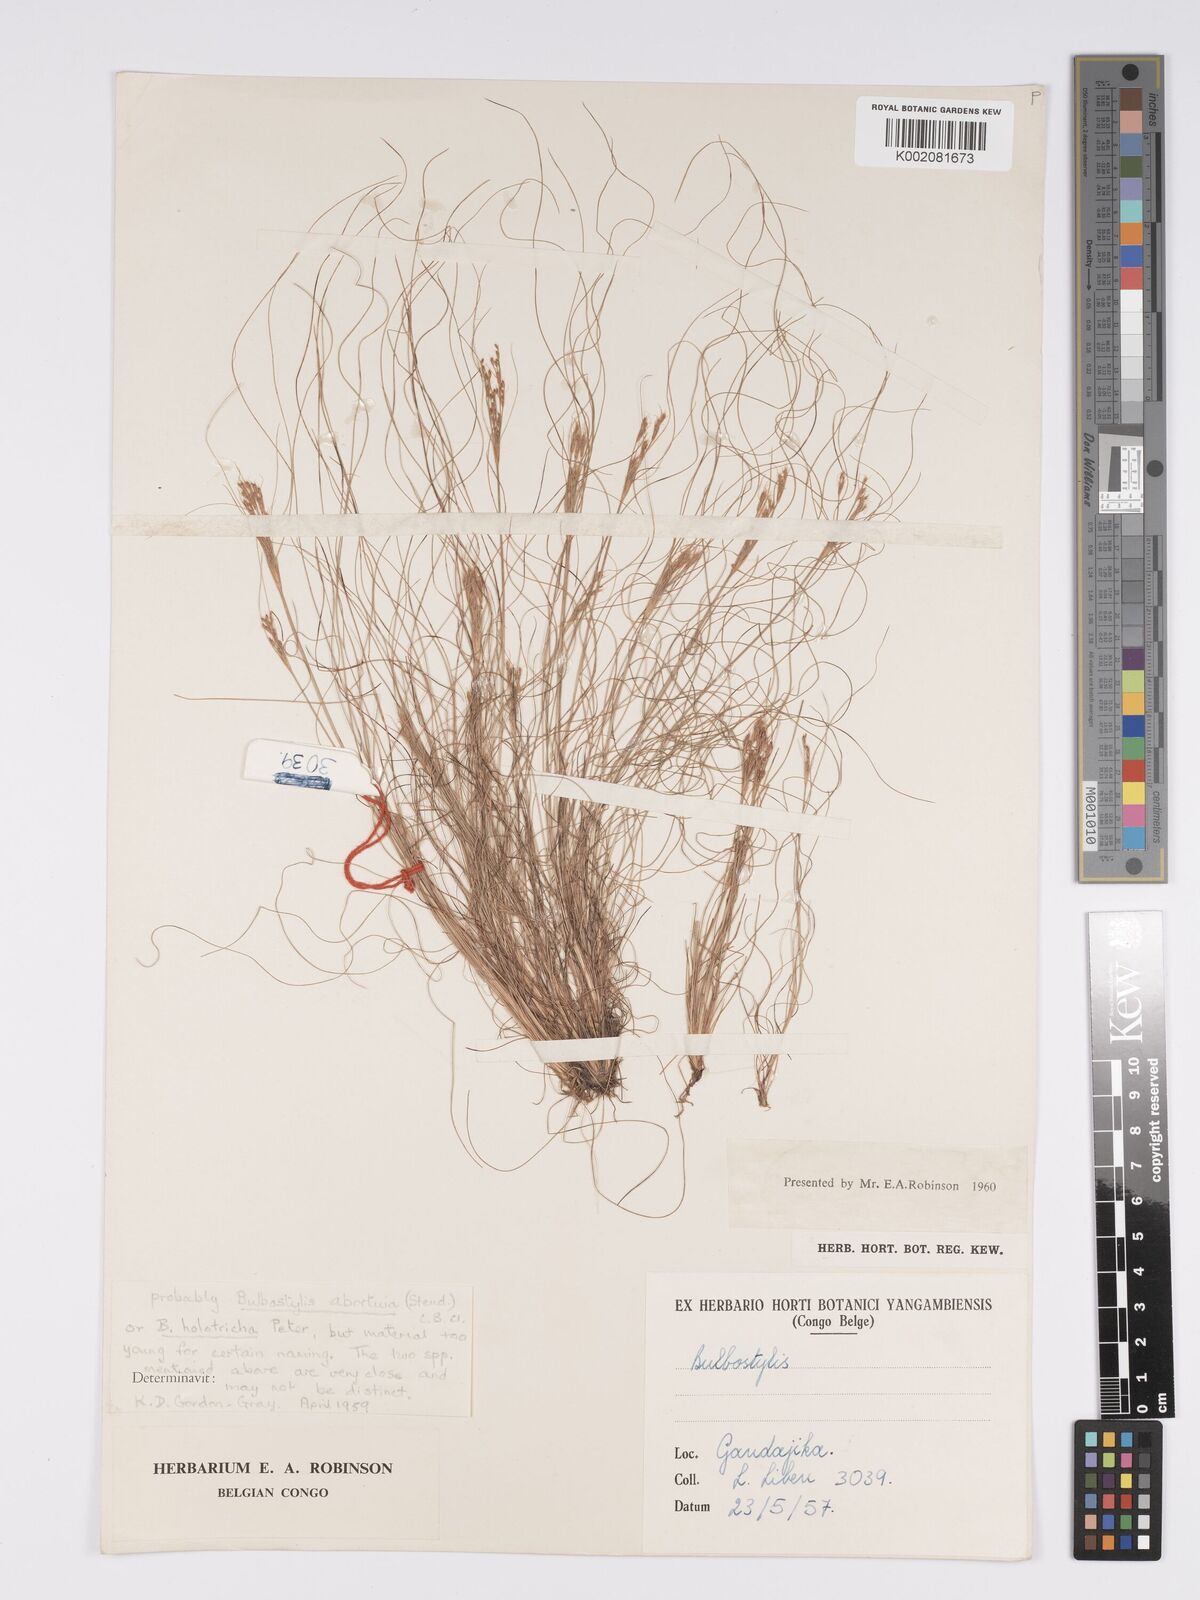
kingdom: Plantae
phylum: Tracheophyta
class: Liliopsida
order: Poales
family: Cyperaceae
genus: Bulbostylis
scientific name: Bulbostylis abortiva
